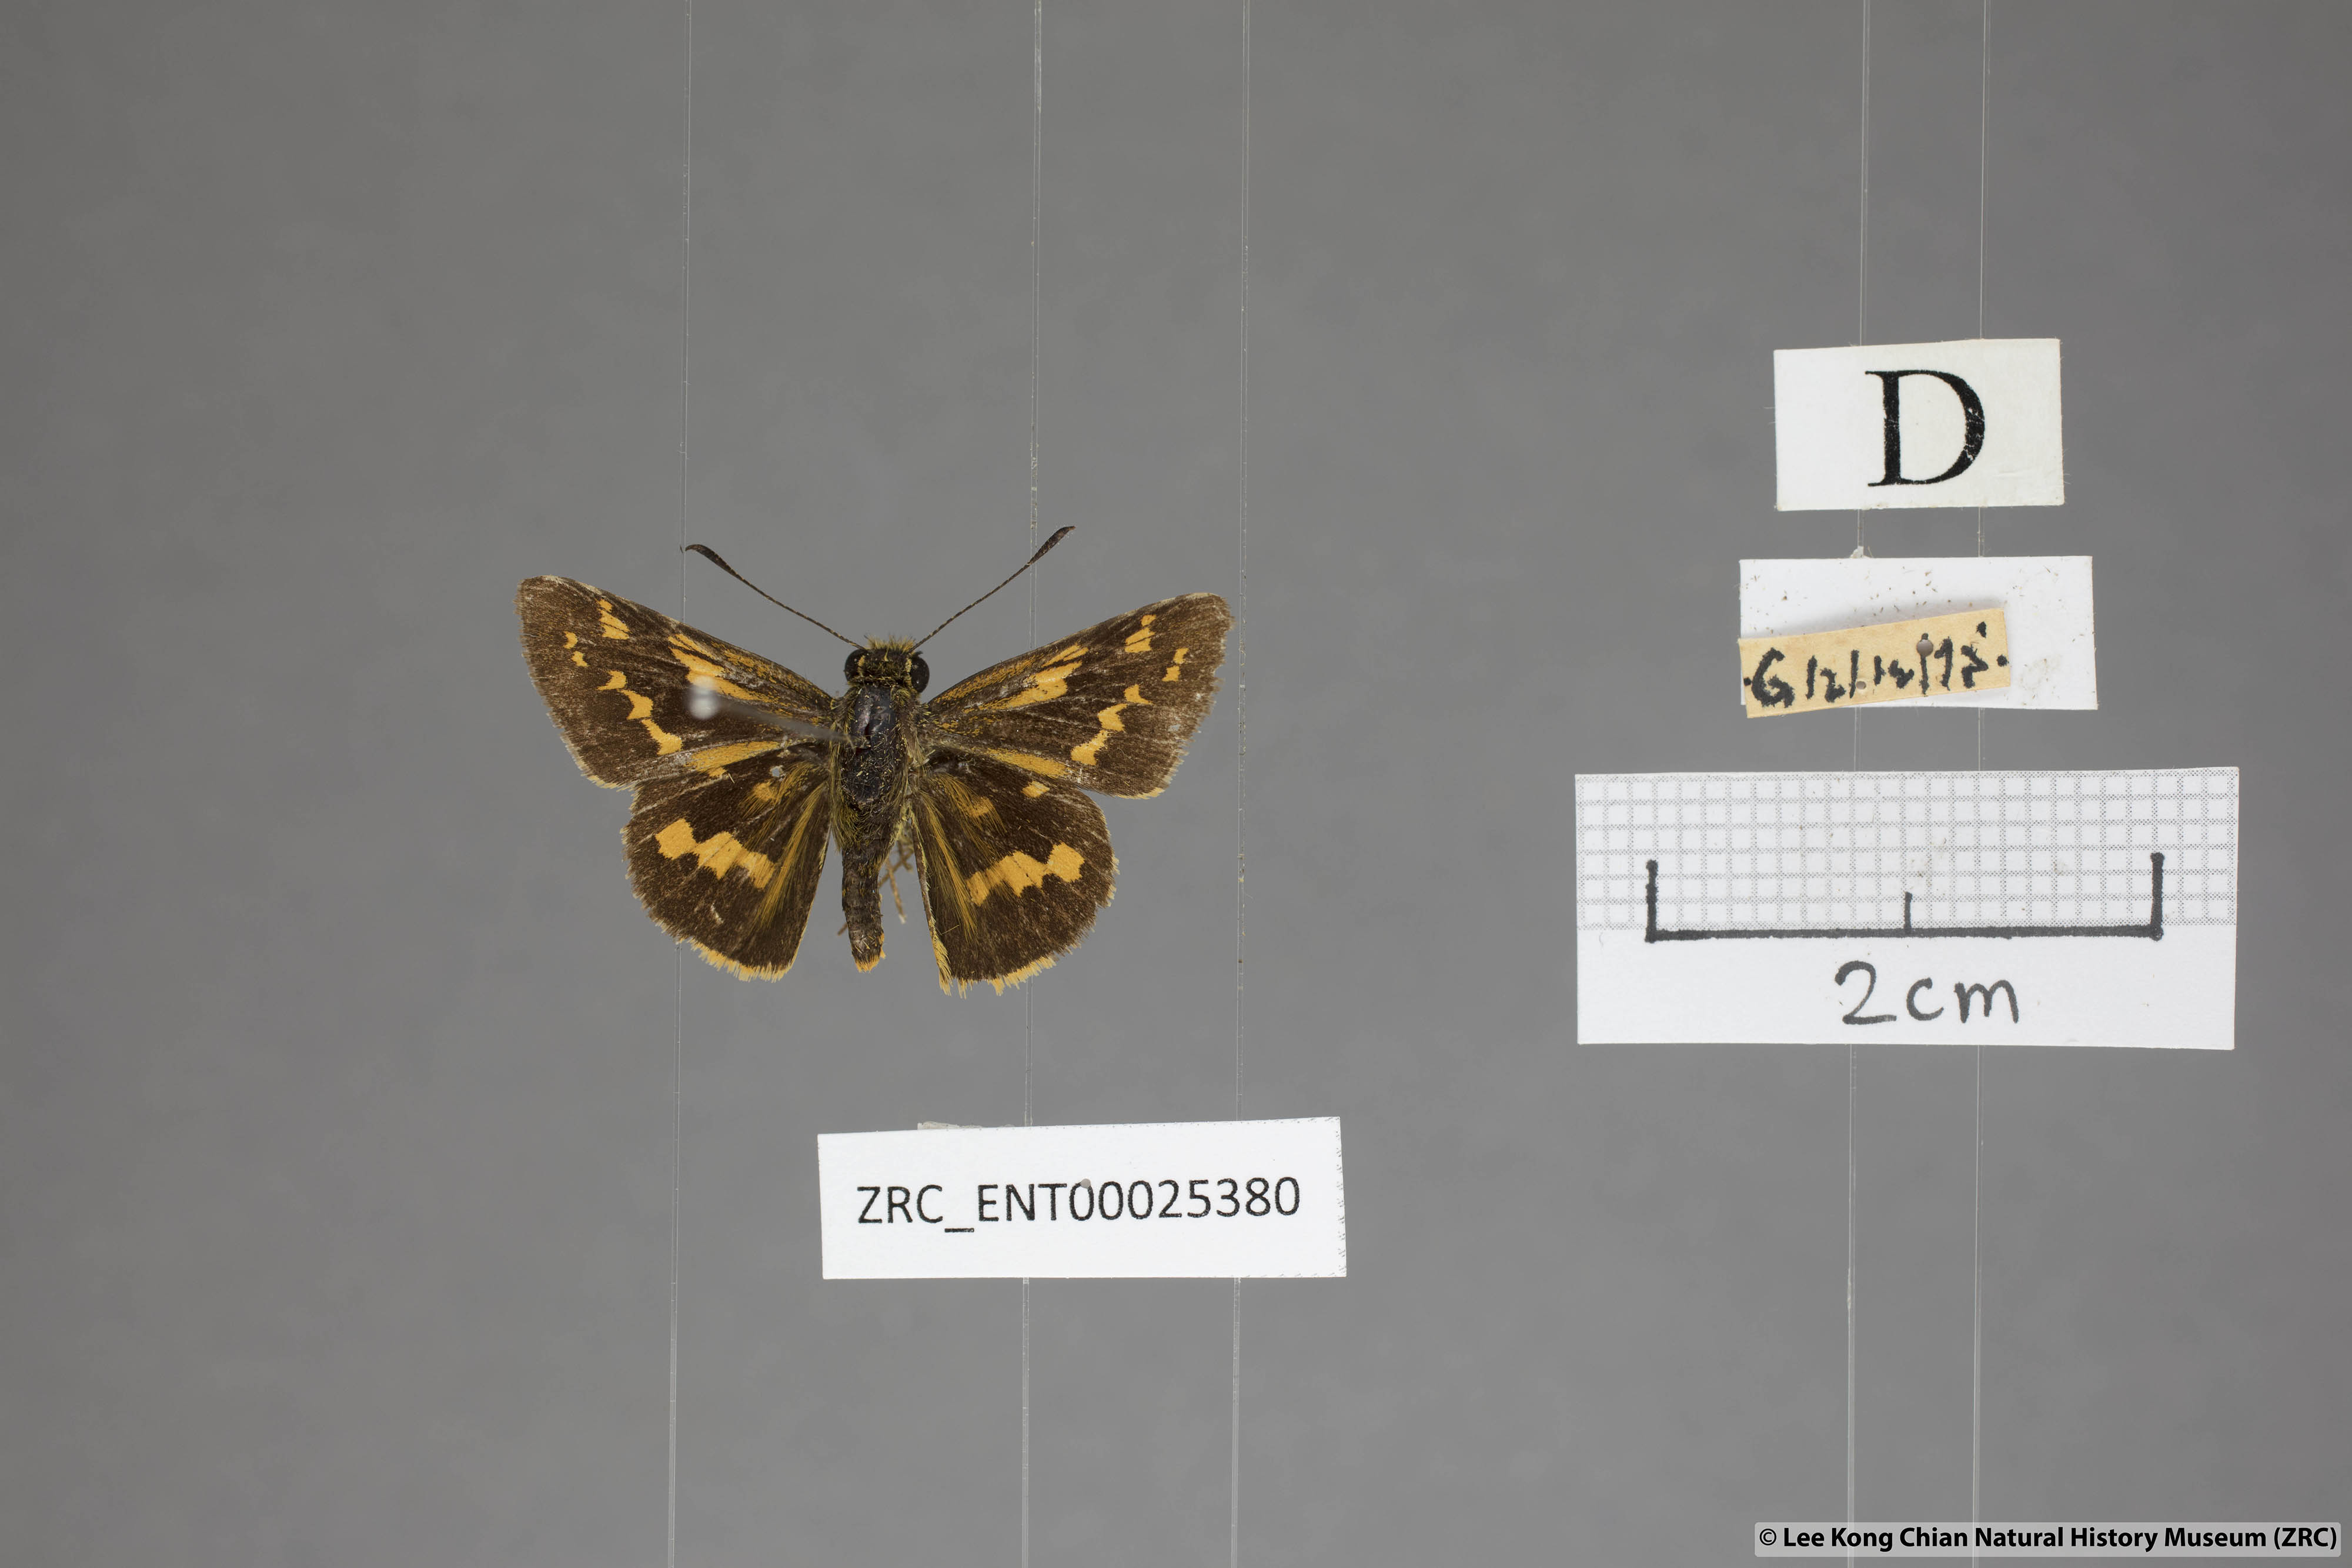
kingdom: Animalia
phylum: Arthropoda
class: Insecta
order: Lepidoptera
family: Hesperiidae
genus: Potanthus
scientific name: Potanthus ganda
